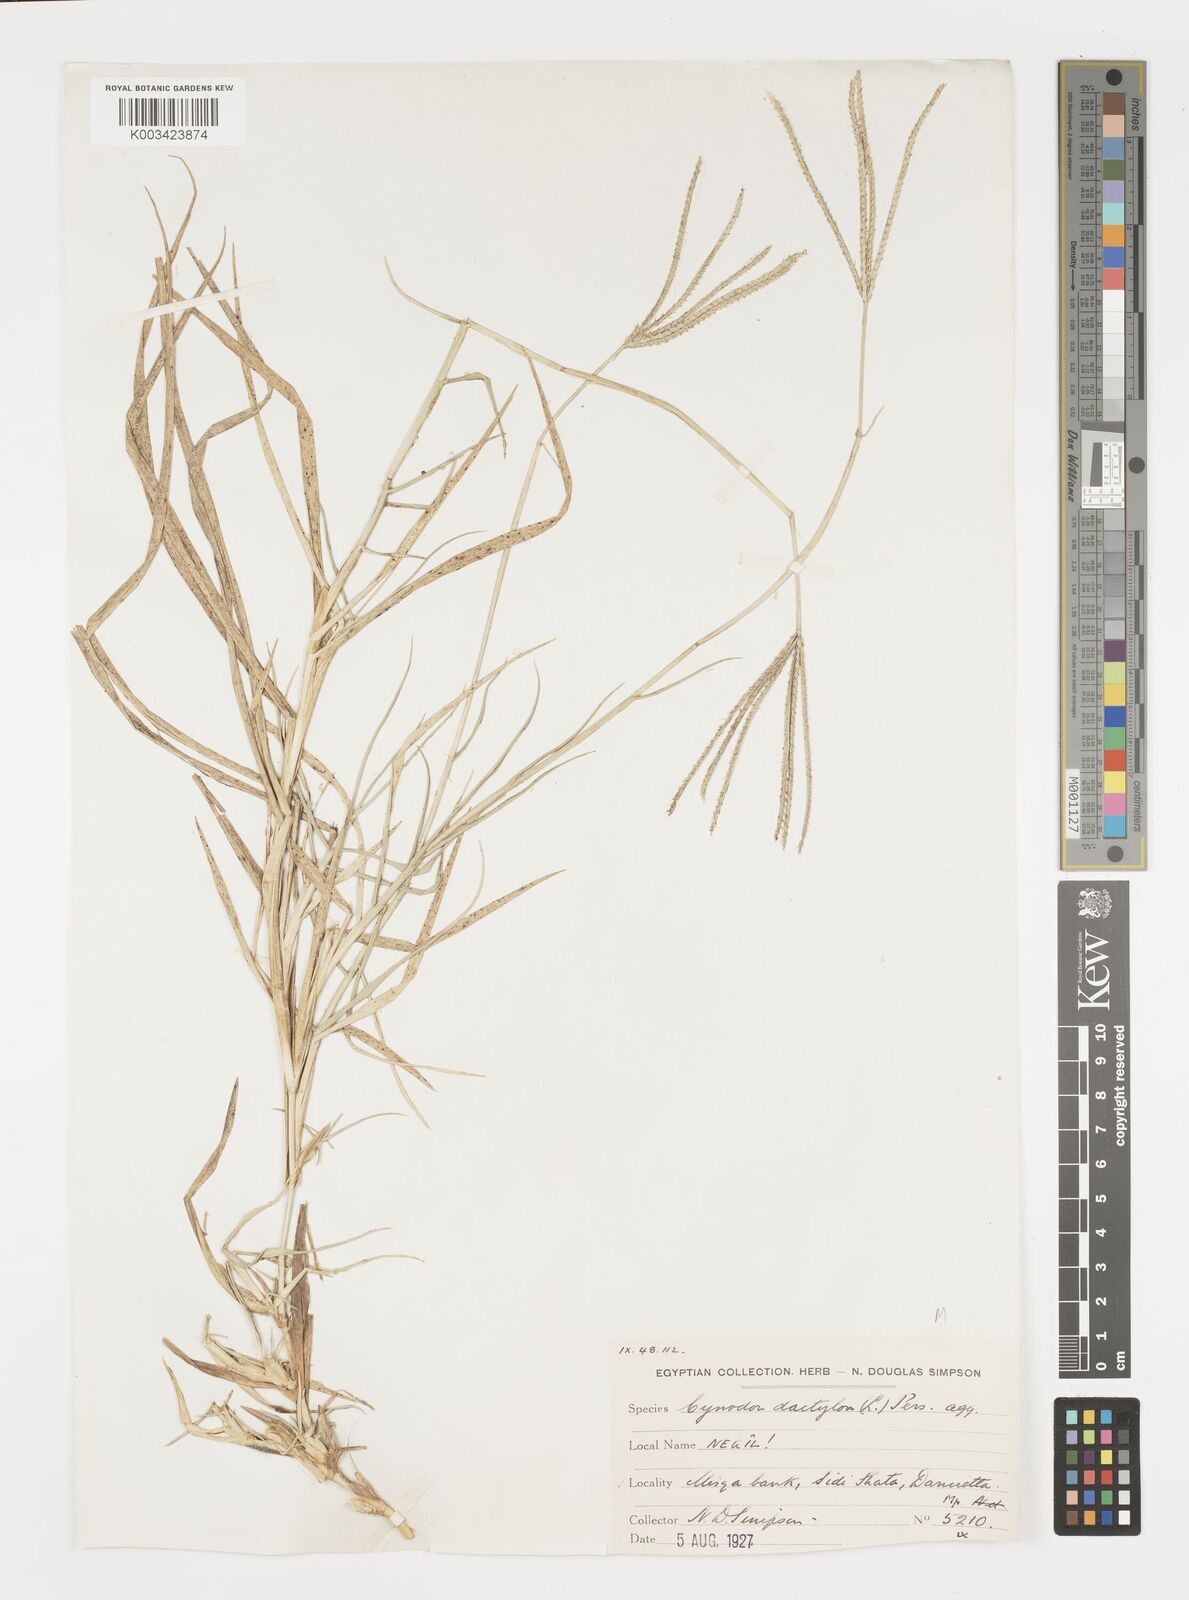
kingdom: Plantae
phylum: Tracheophyta
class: Liliopsida
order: Poales
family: Poaceae
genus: Cynodon
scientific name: Cynodon dactylon
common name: Bermuda grass
